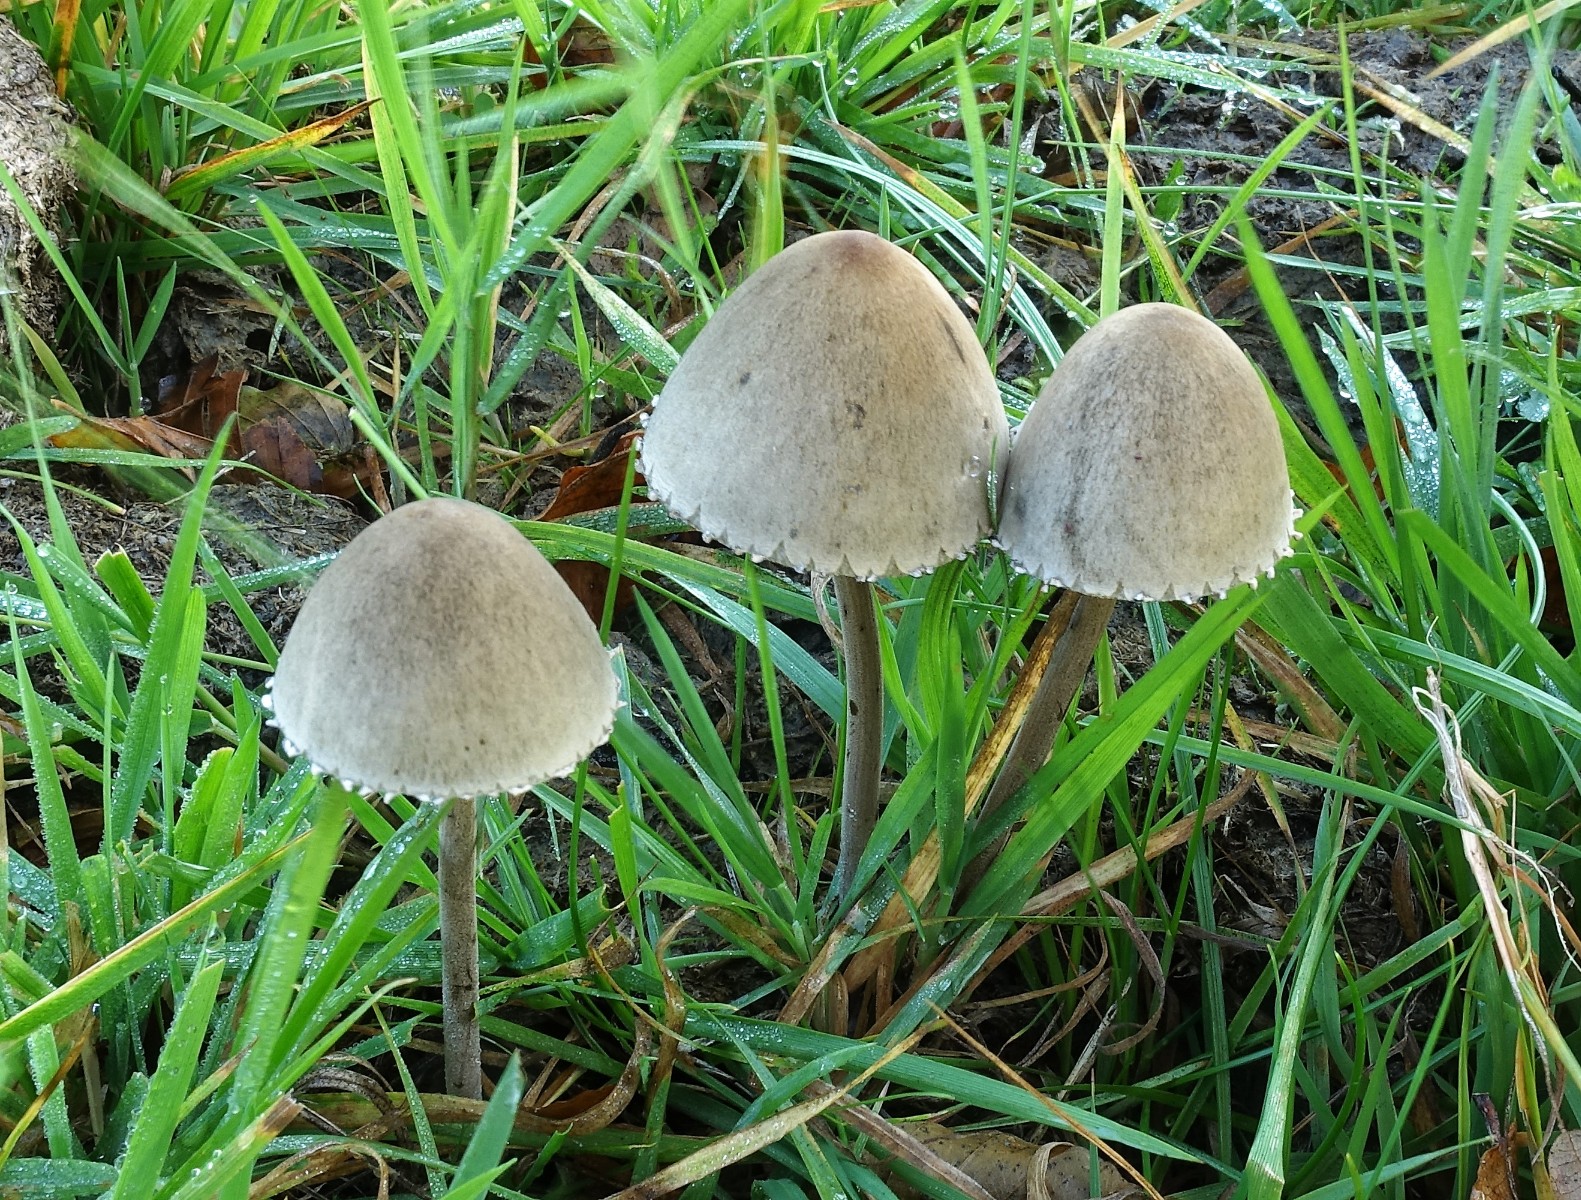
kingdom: Fungi
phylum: Basidiomycota
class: Agaricomycetes
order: Agaricales
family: Bolbitiaceae
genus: Panaeolus
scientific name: Panaeolus papilionaceus
